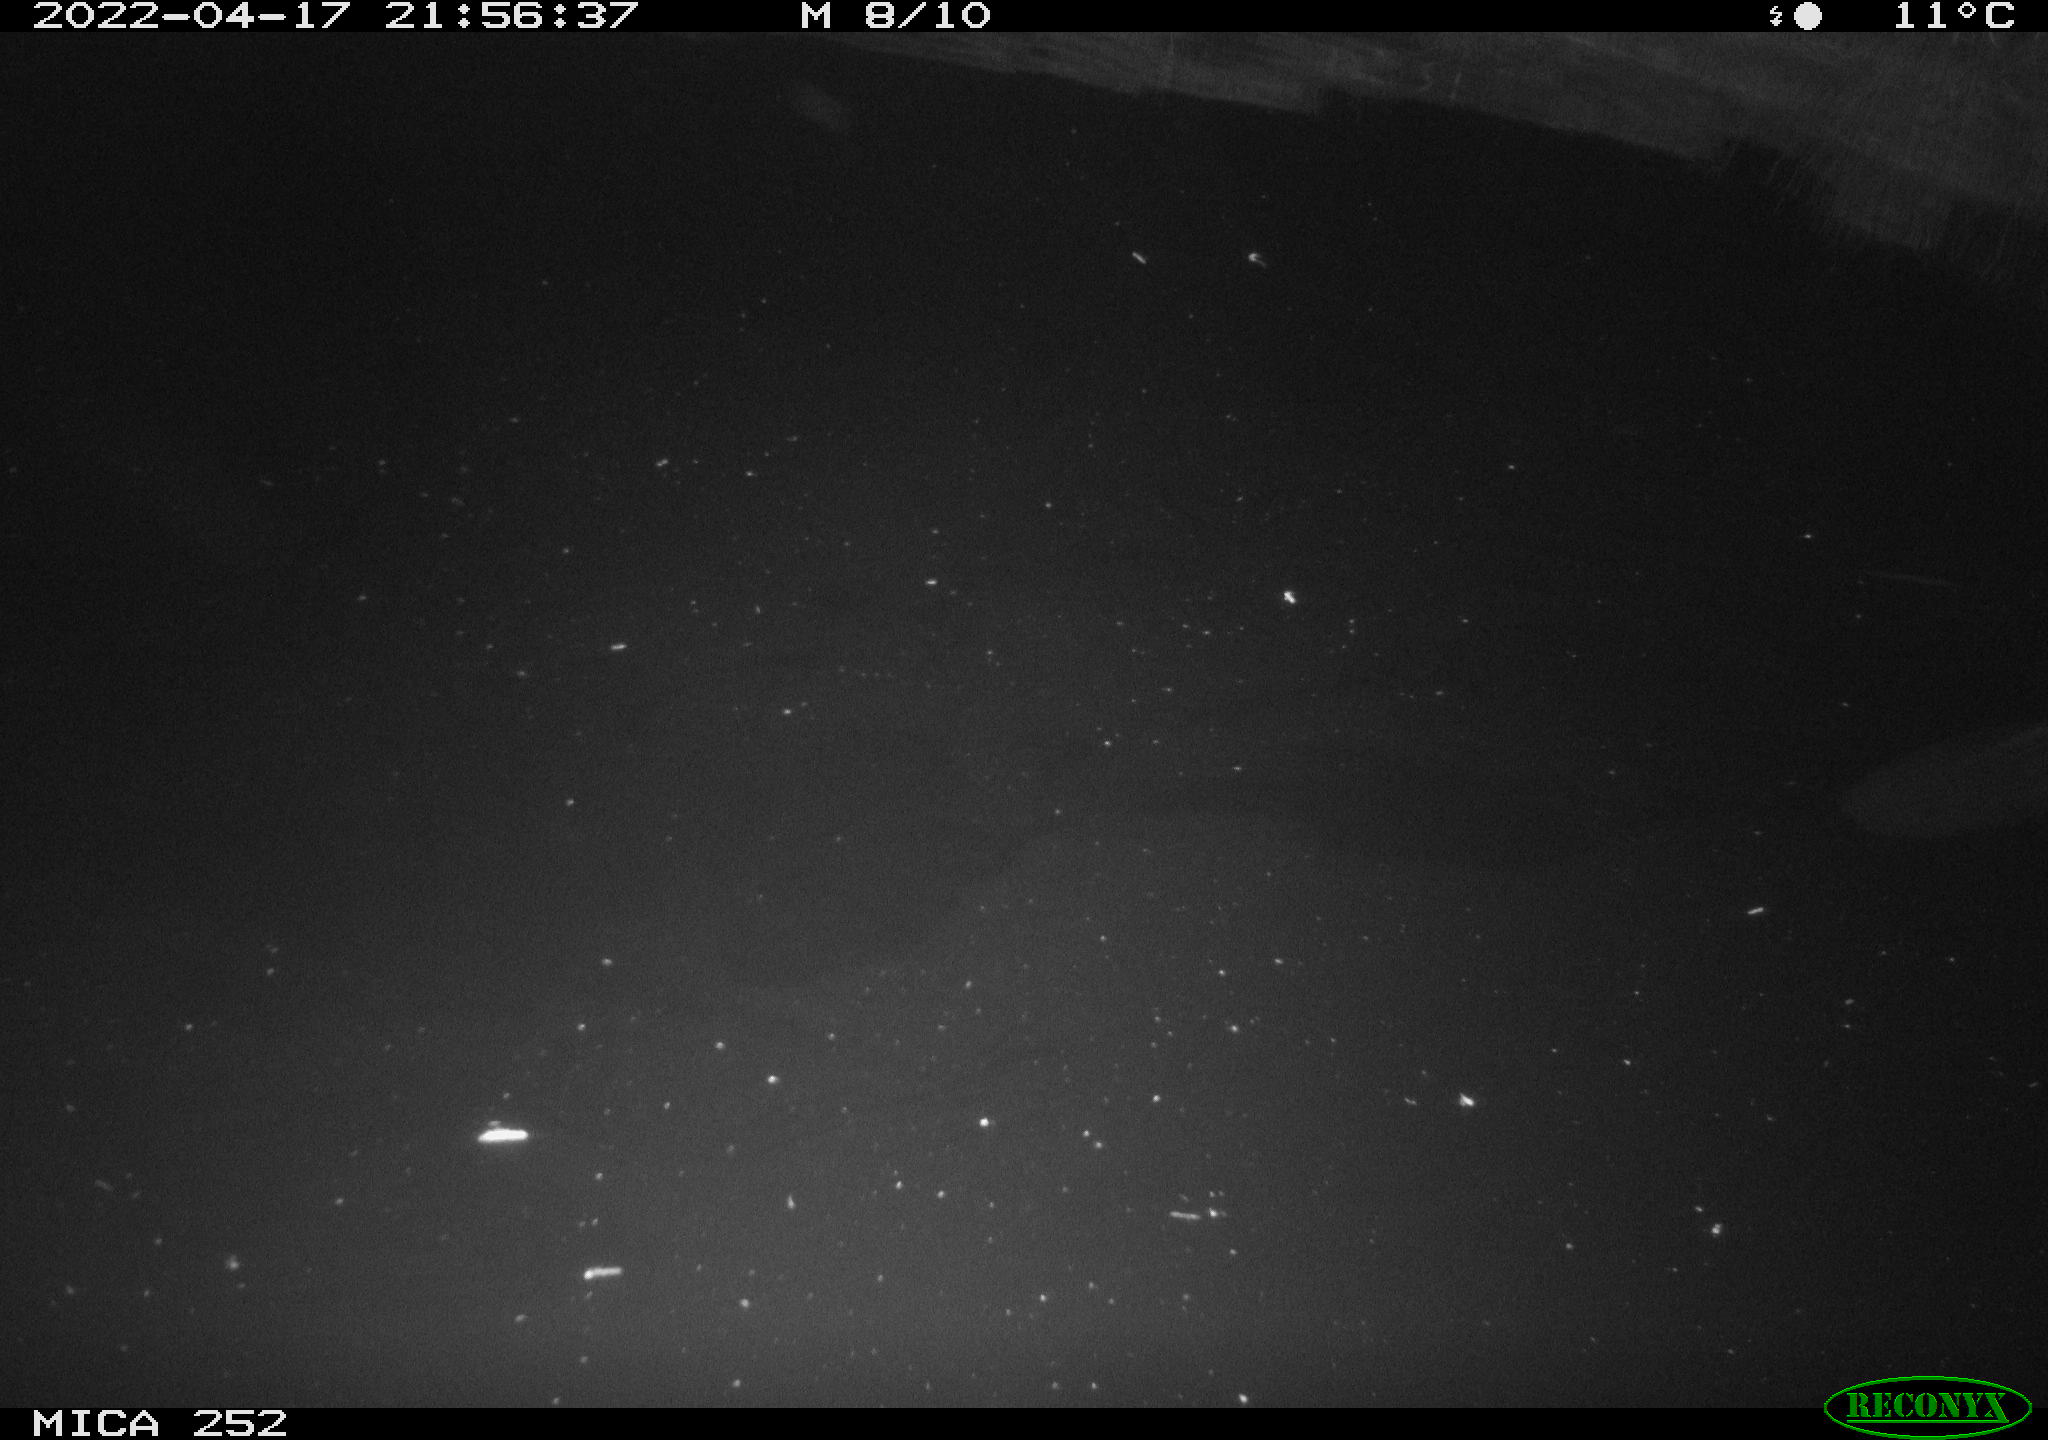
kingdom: Animalia
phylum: Chordata
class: Mammalia
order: Rodentia
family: Castoridae
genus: Castor
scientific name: Castor fiber
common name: Eurasian beaver
